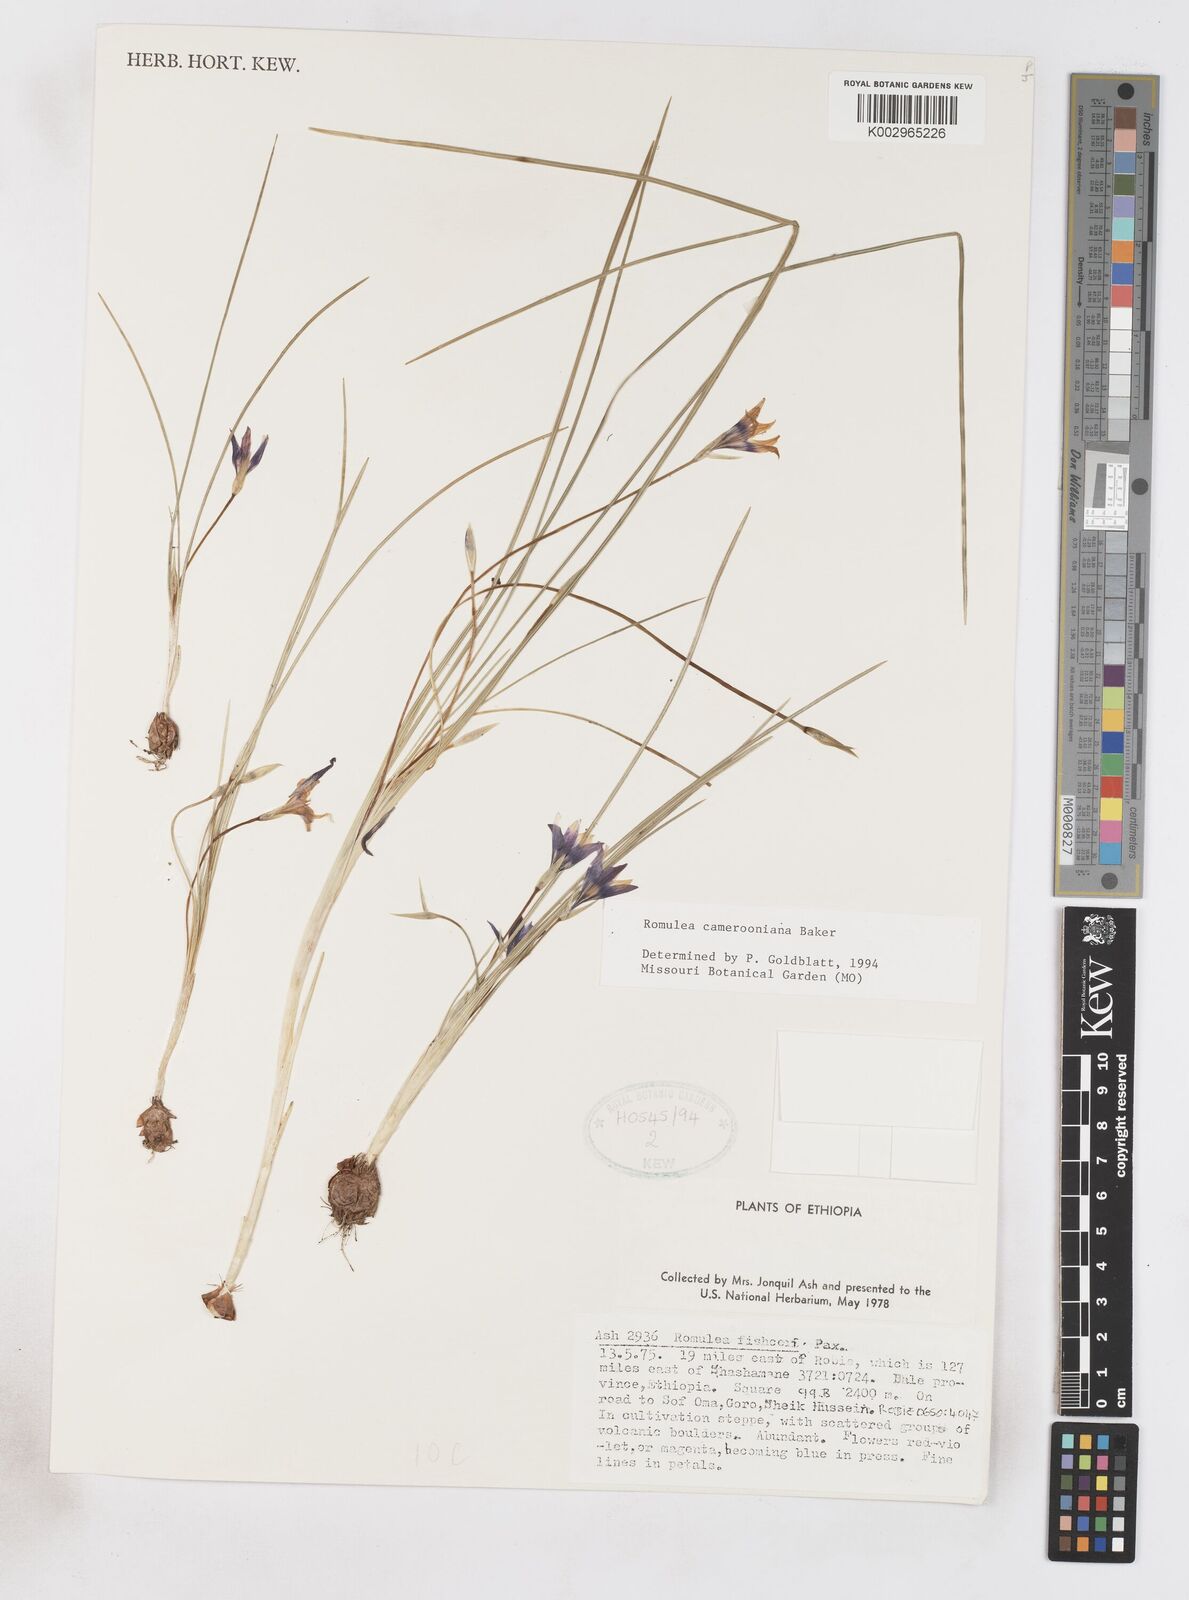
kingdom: Plantae
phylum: Tracheophyta
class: Liliopsida
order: Asparagales
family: Iridaceae
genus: Romulea
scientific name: Romulea camerooniana
